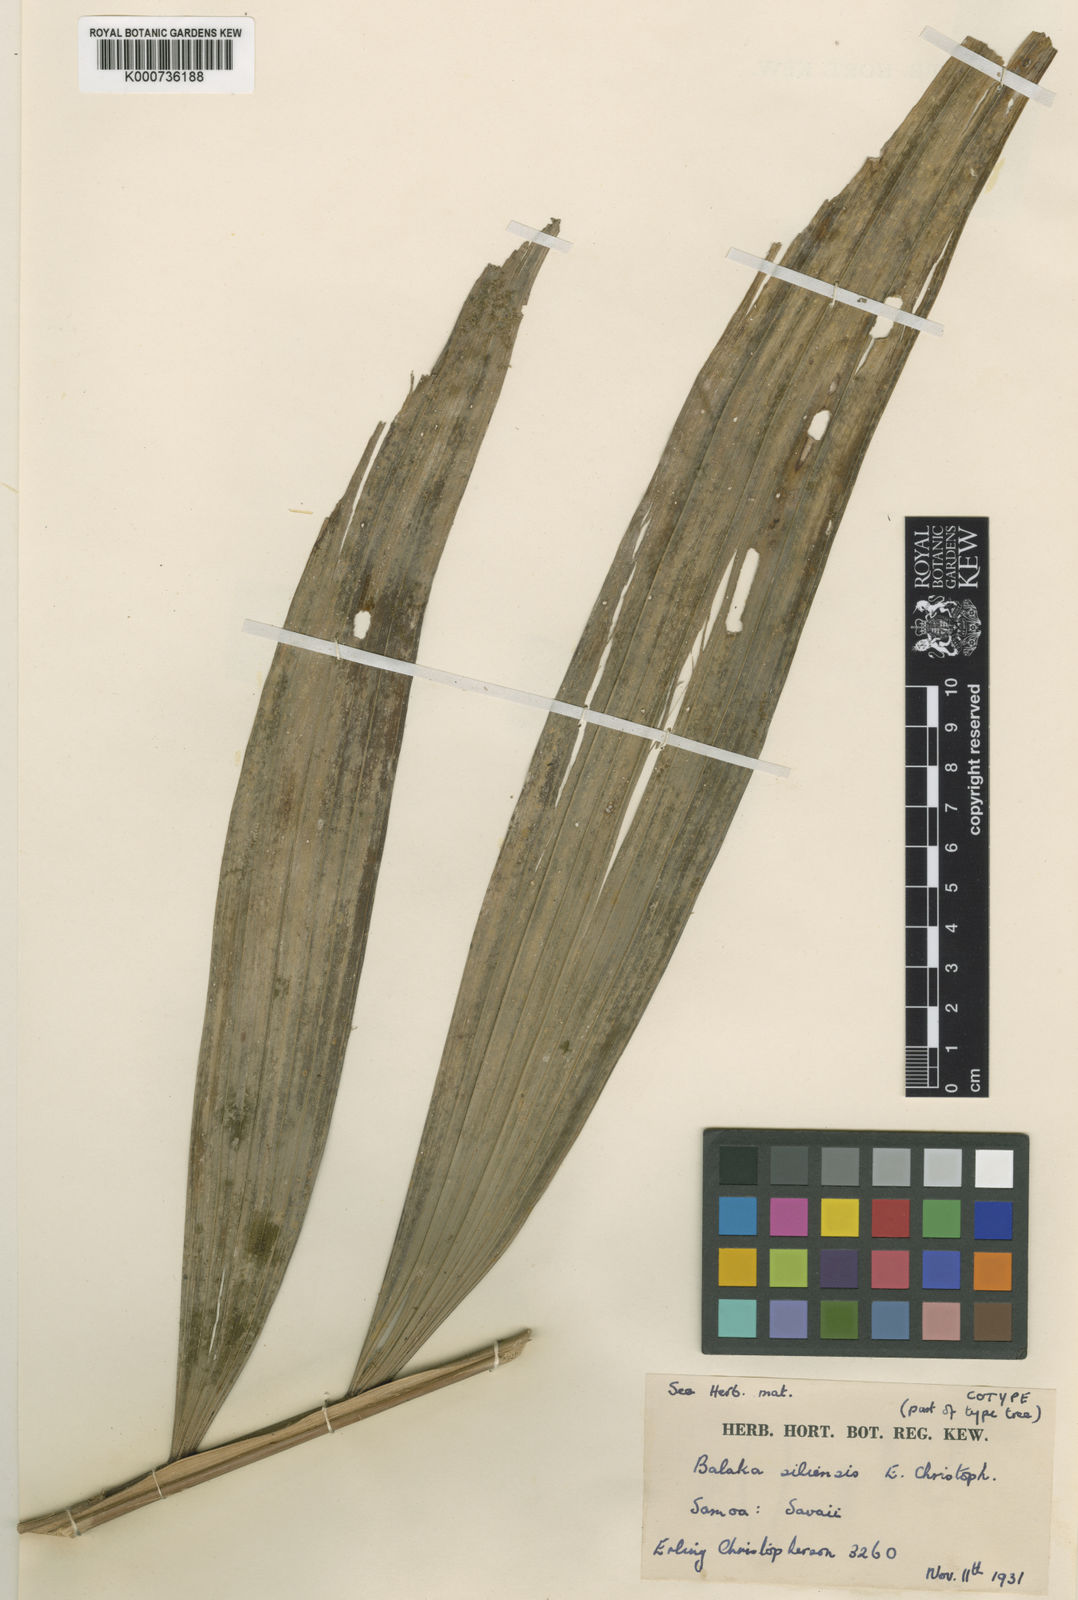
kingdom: Plantae
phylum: Tracheophyta
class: Liliopsida
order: Arecales
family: Arecaceae
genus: Balaka
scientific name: Balaka samoensis
